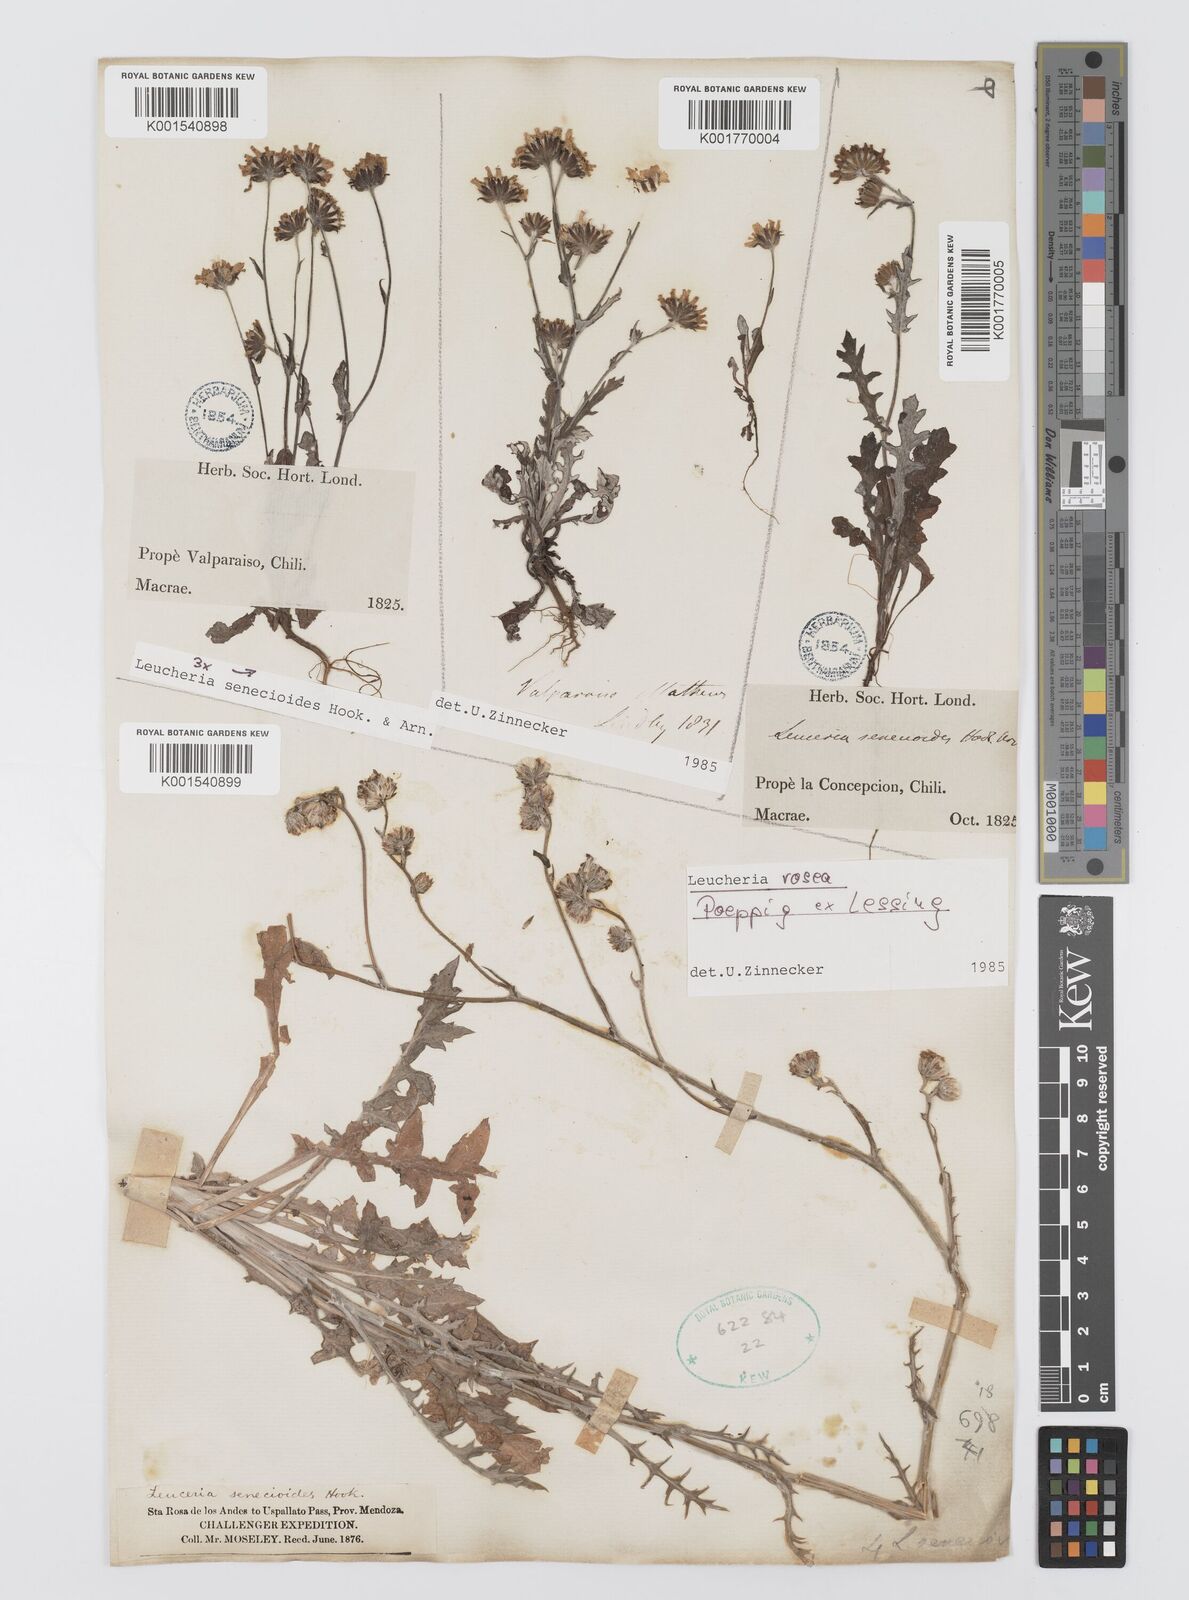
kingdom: Plantae
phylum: Tracheophyta
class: Magnoliopsida
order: Asterales
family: Asteraceae
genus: Leucheria
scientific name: Leucheria rosea
